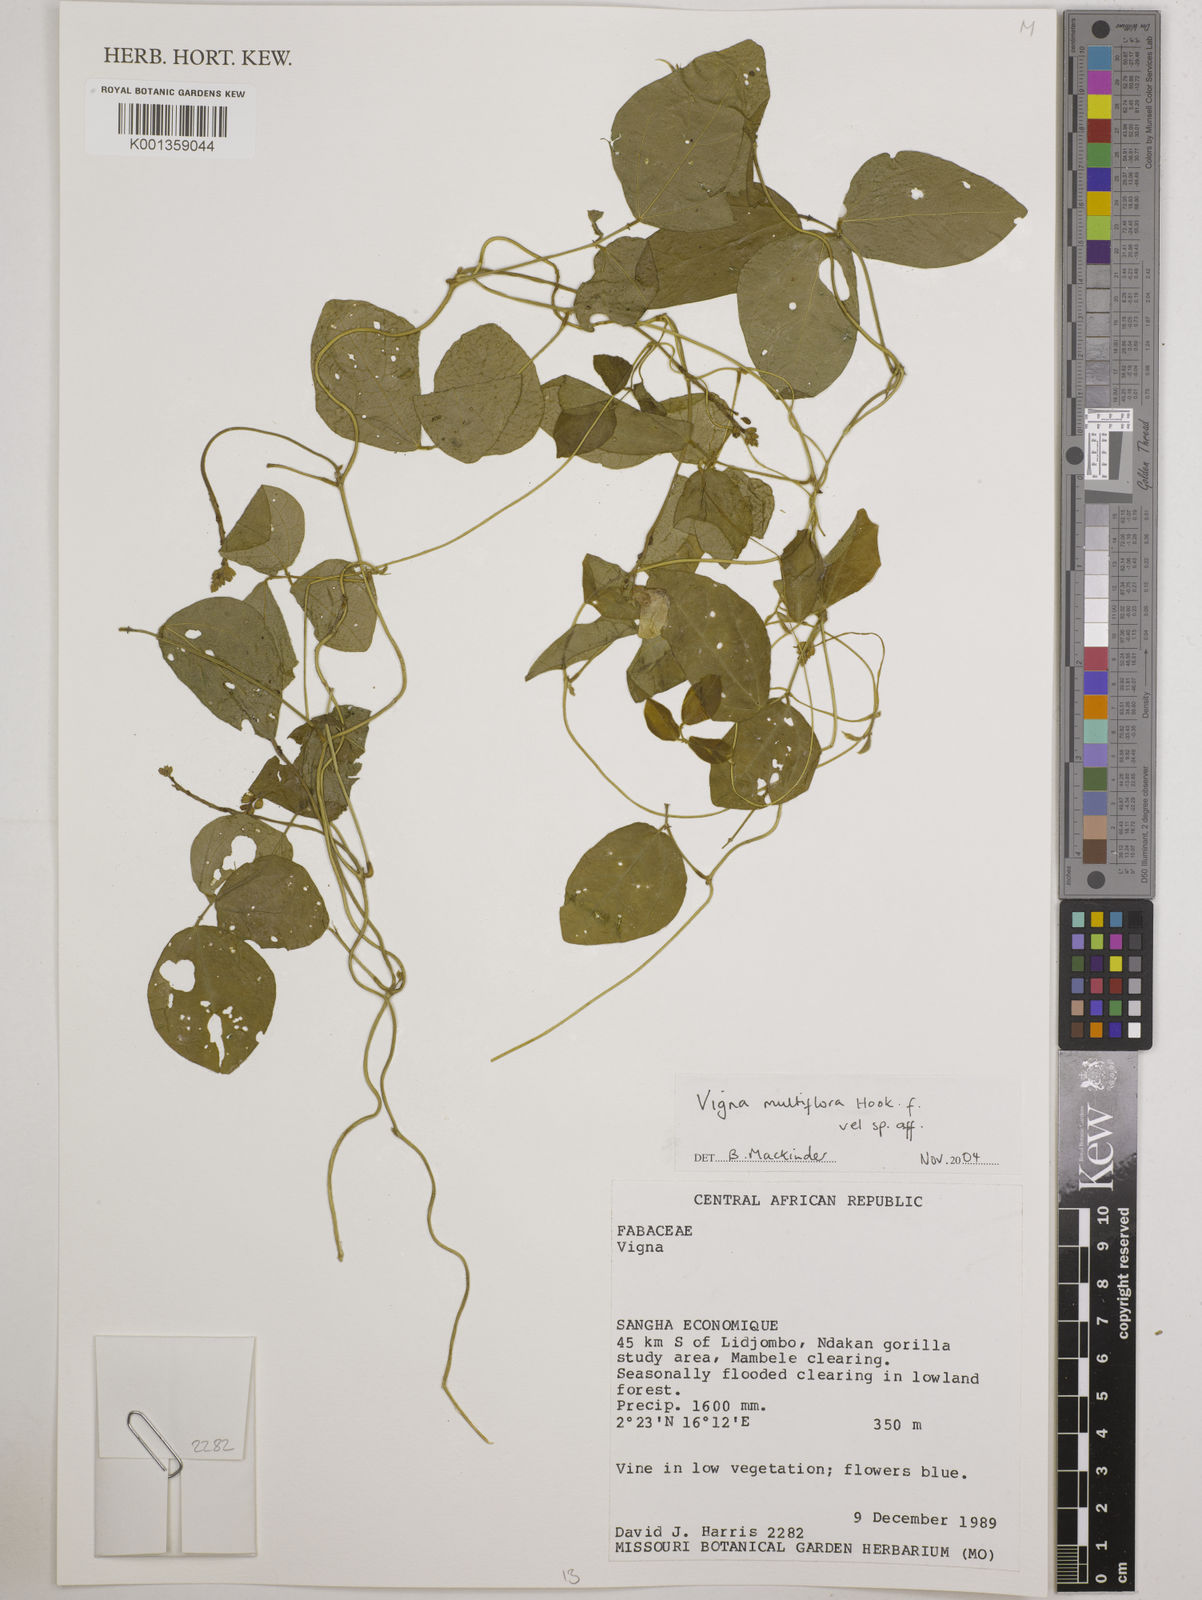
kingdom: Plantae
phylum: Tracheophyta
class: Magnoliopsida
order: Fabales
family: Fabaceae
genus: Vigna
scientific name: Vigna gracilis
